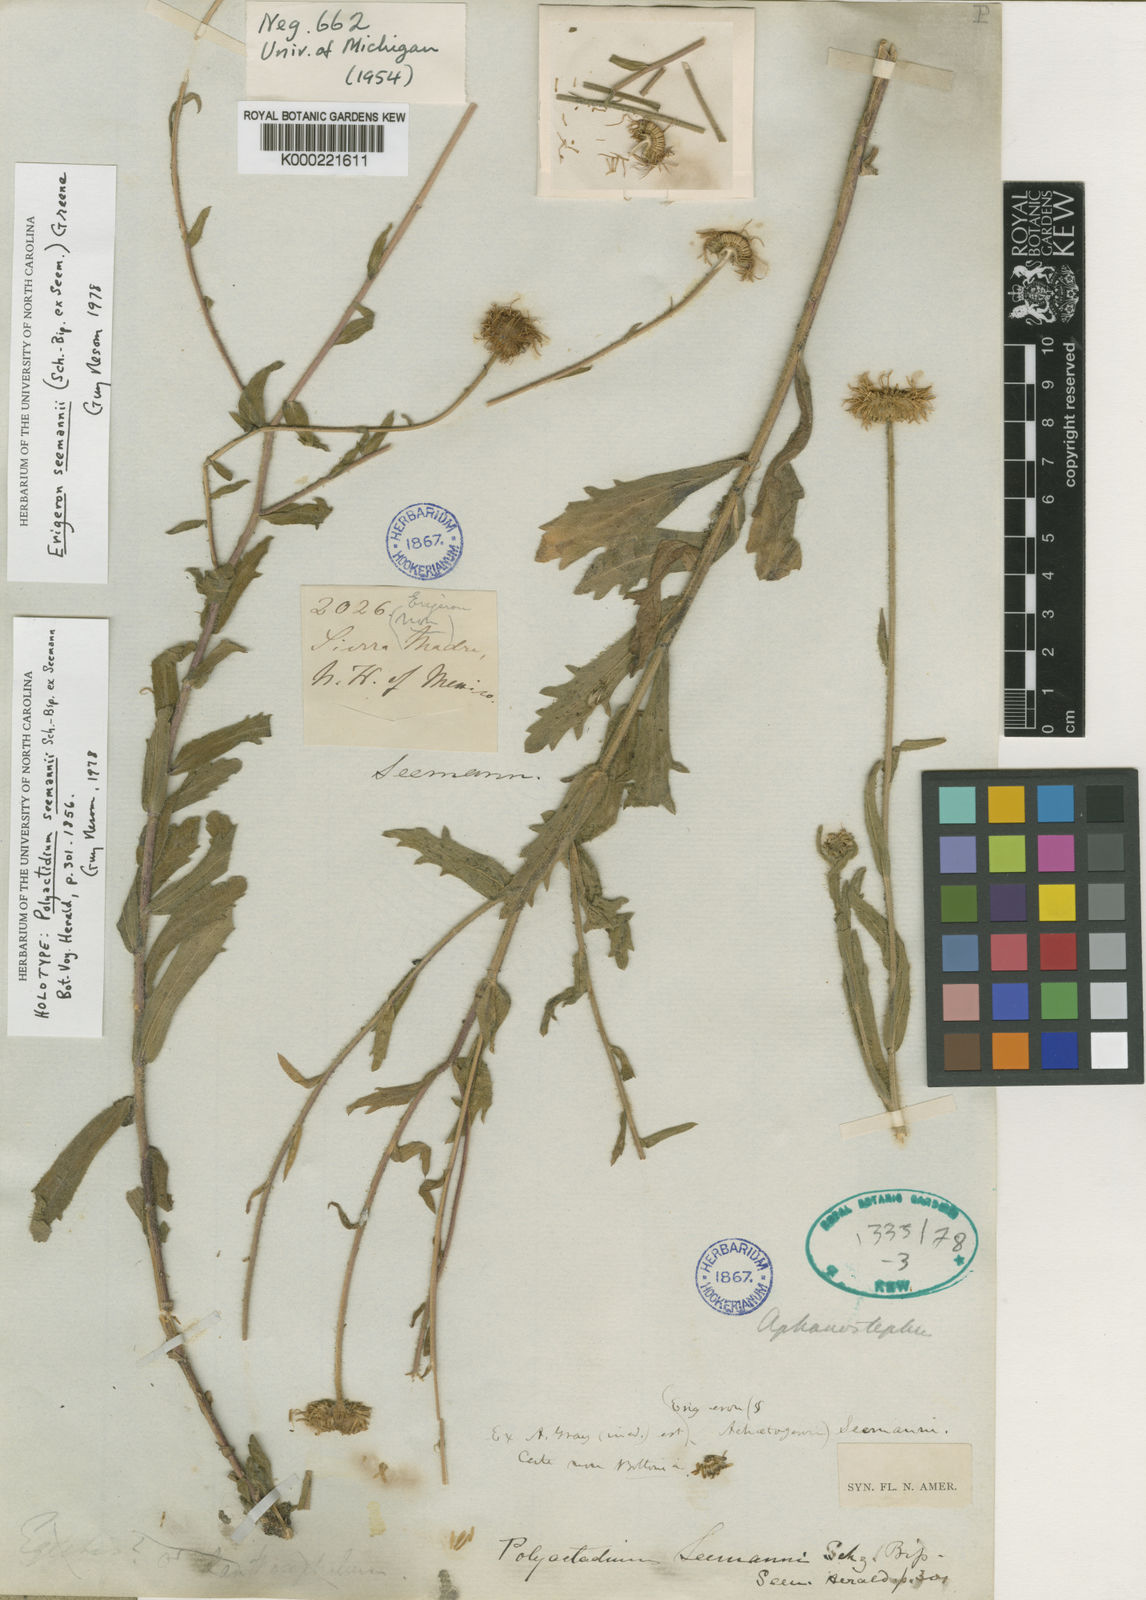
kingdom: Plantae
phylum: Tracheophyta
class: Magnoliopsida
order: Asterales
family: Asteraceae
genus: Erigeron
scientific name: Erigeron seemannii
